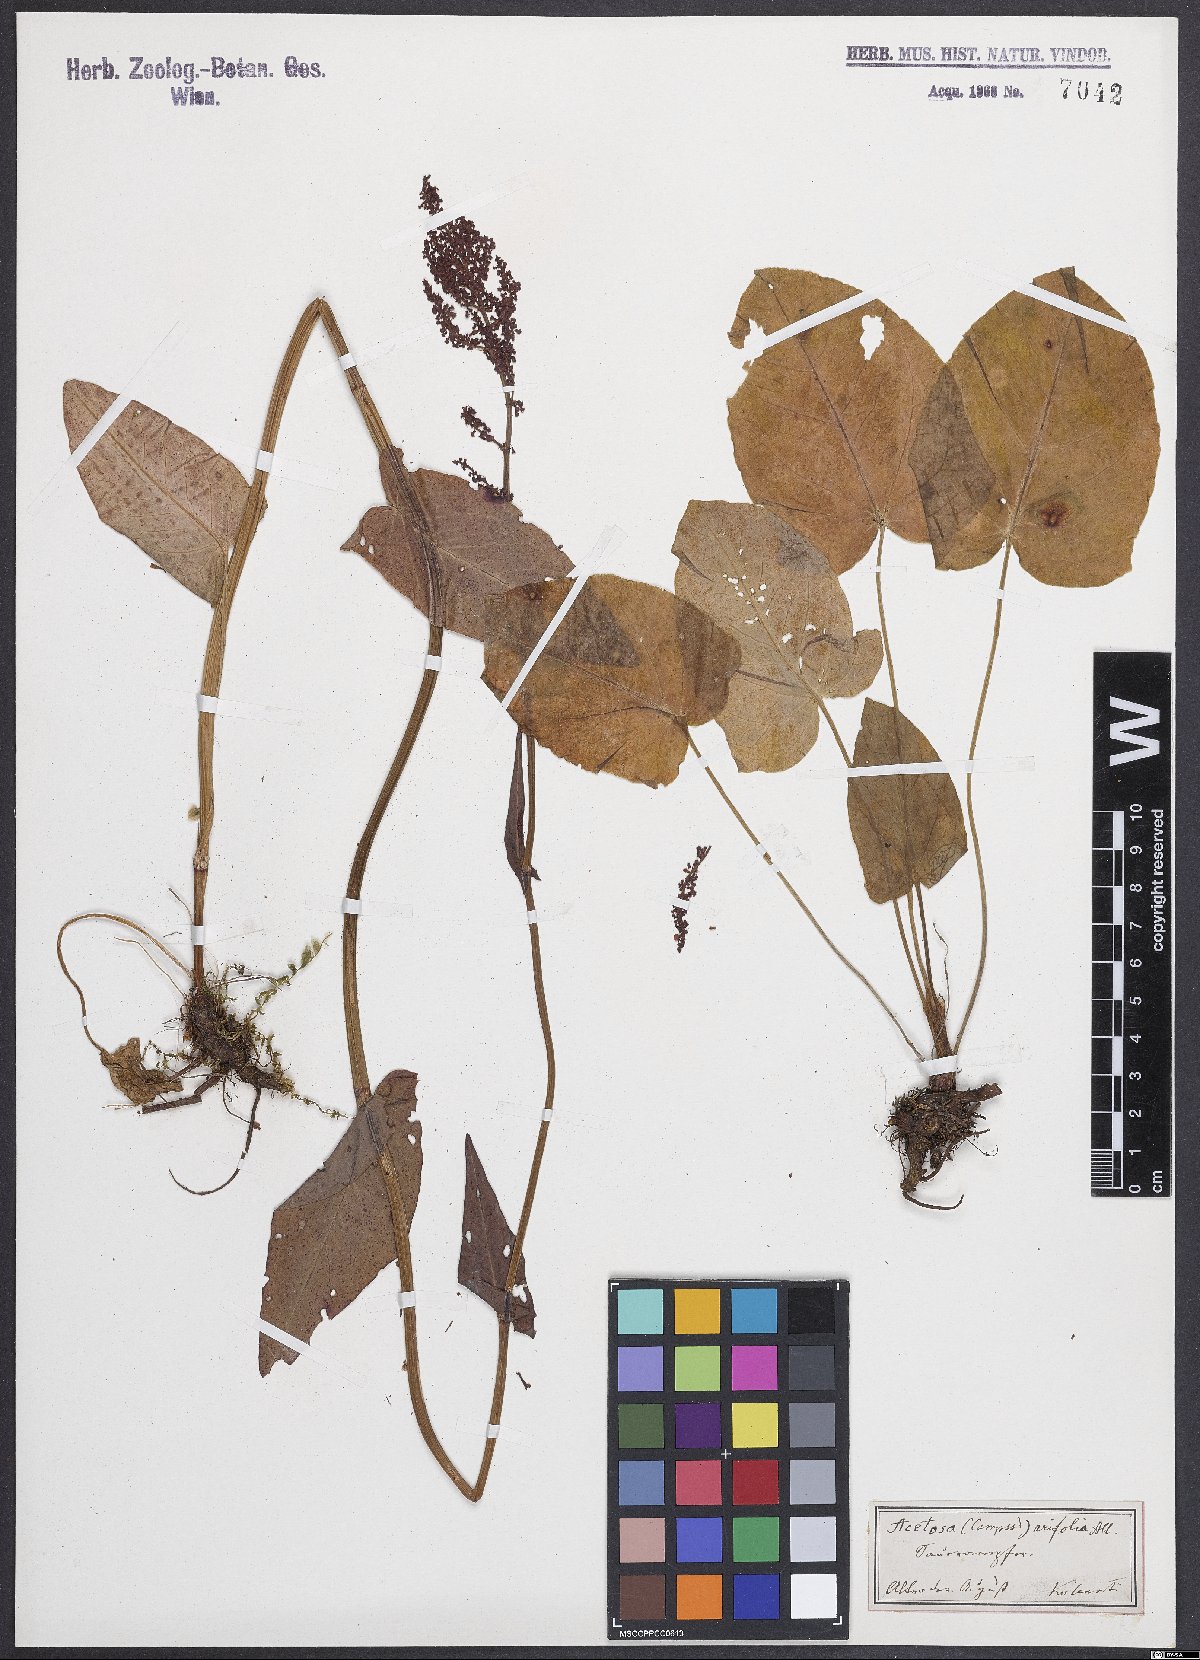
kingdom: Plantae
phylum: Tracheophyta
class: Magnoliopsida
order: Caryophyllales
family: Polygonaceae
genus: Rumex
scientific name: Rumex arifolius
